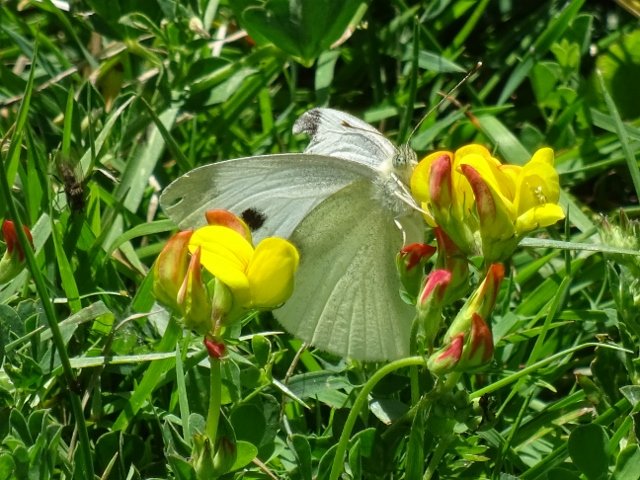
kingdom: Animalia
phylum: Arthropoda
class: Insecta
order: Lepidoptera
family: Pieridae
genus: Pieris
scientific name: Pieris rapae
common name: Cabbage White
